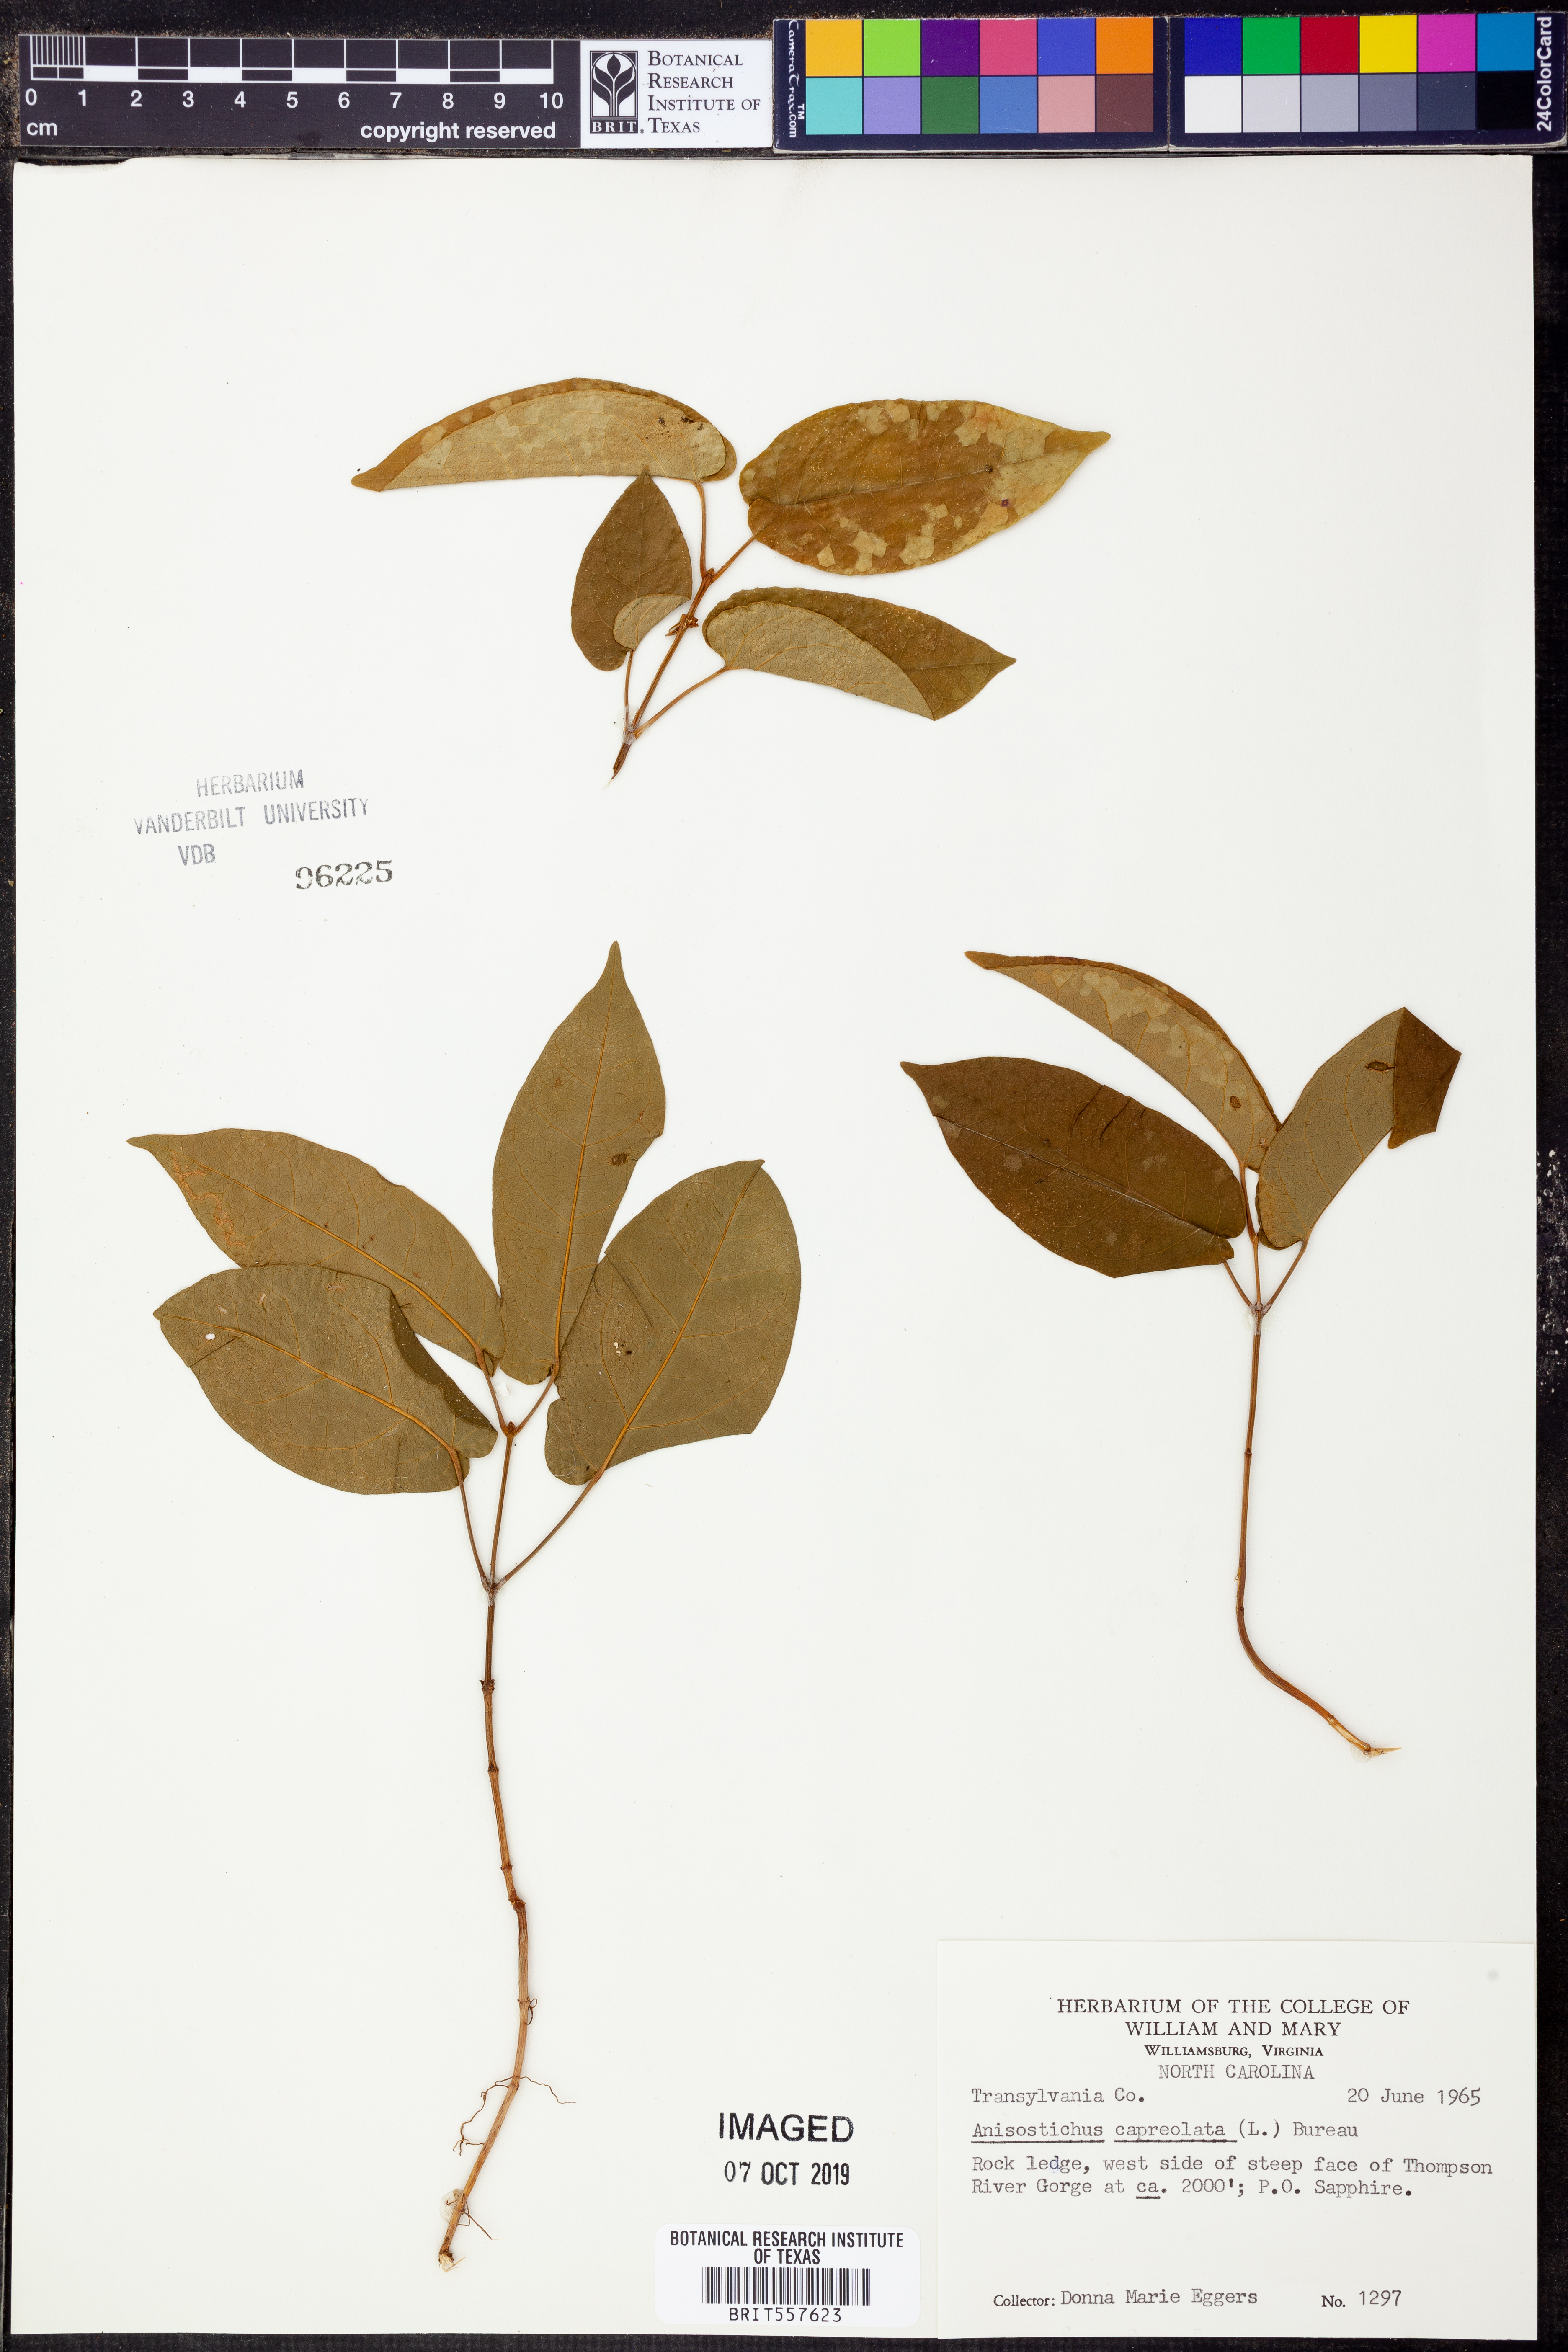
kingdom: Plantae
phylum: Tracheophyta
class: Magnoliopsida
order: Lamiales
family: Bignoniaceae
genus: Bignonia
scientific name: Bignonia capreolata
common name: Crossvine
